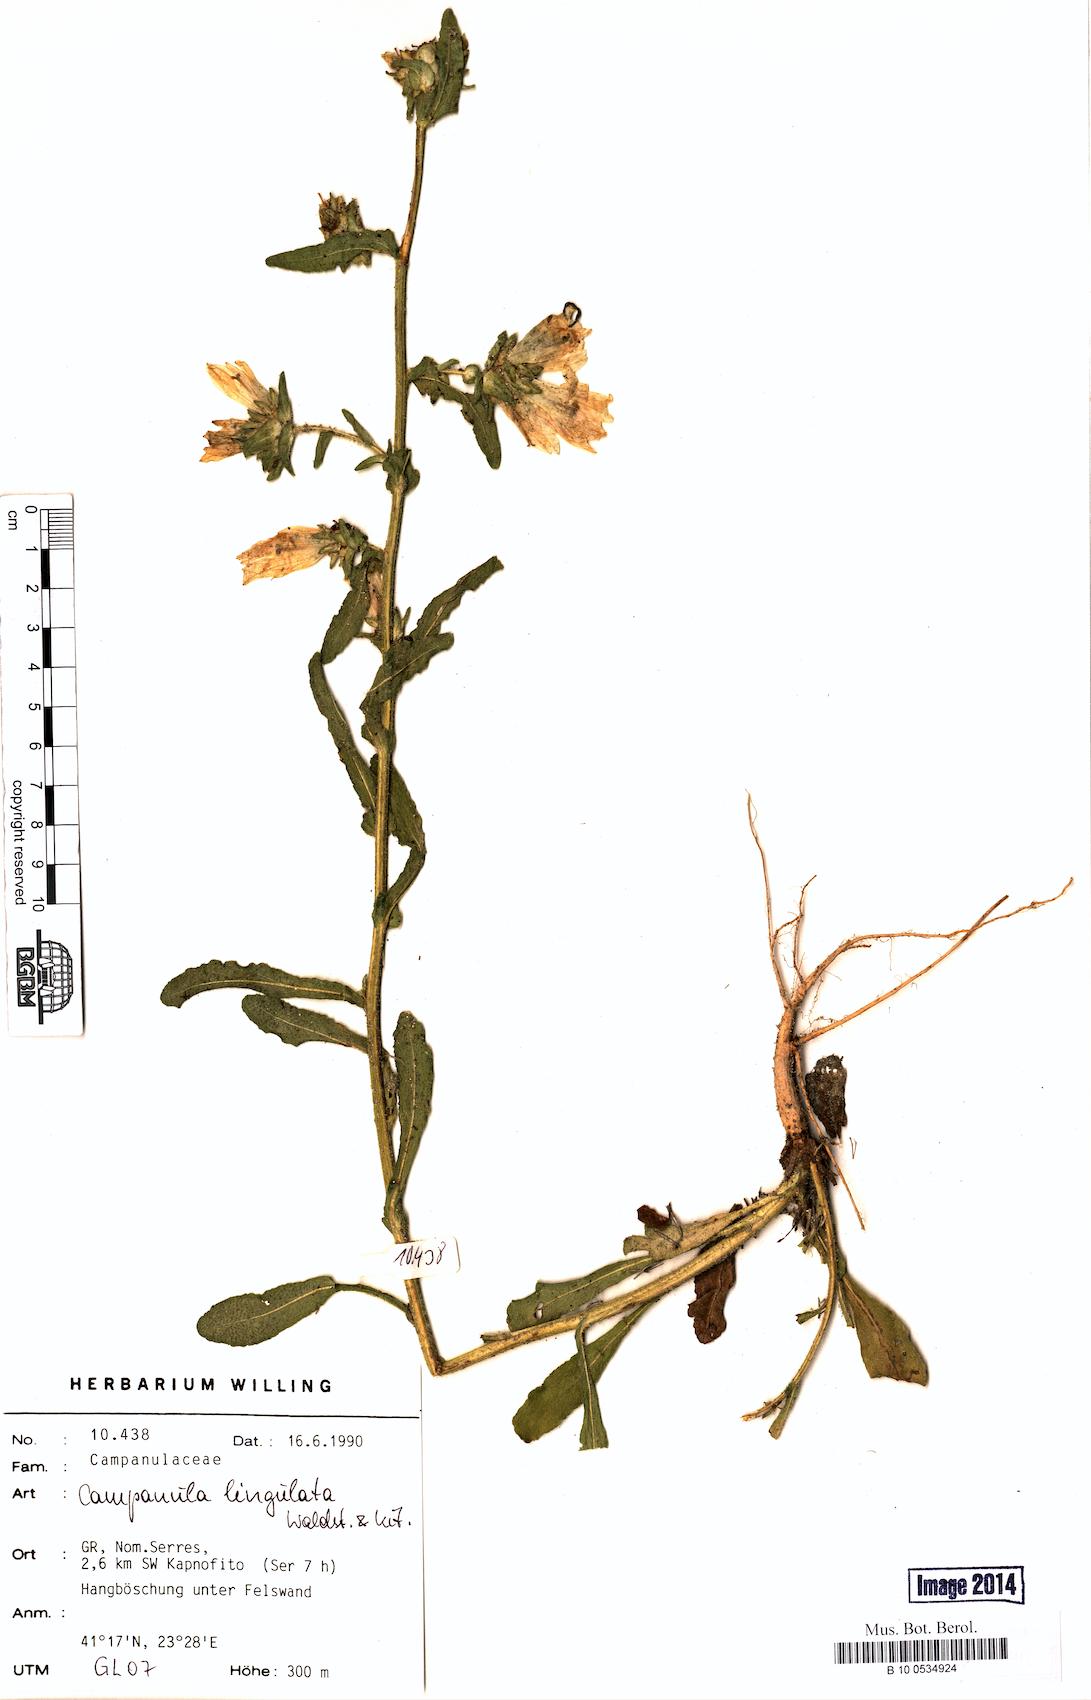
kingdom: Plantae
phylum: Tracheophyta
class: Magnoliopsida
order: Asterales
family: Campanulaceae
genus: Campanula
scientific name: Campanula lingulata
